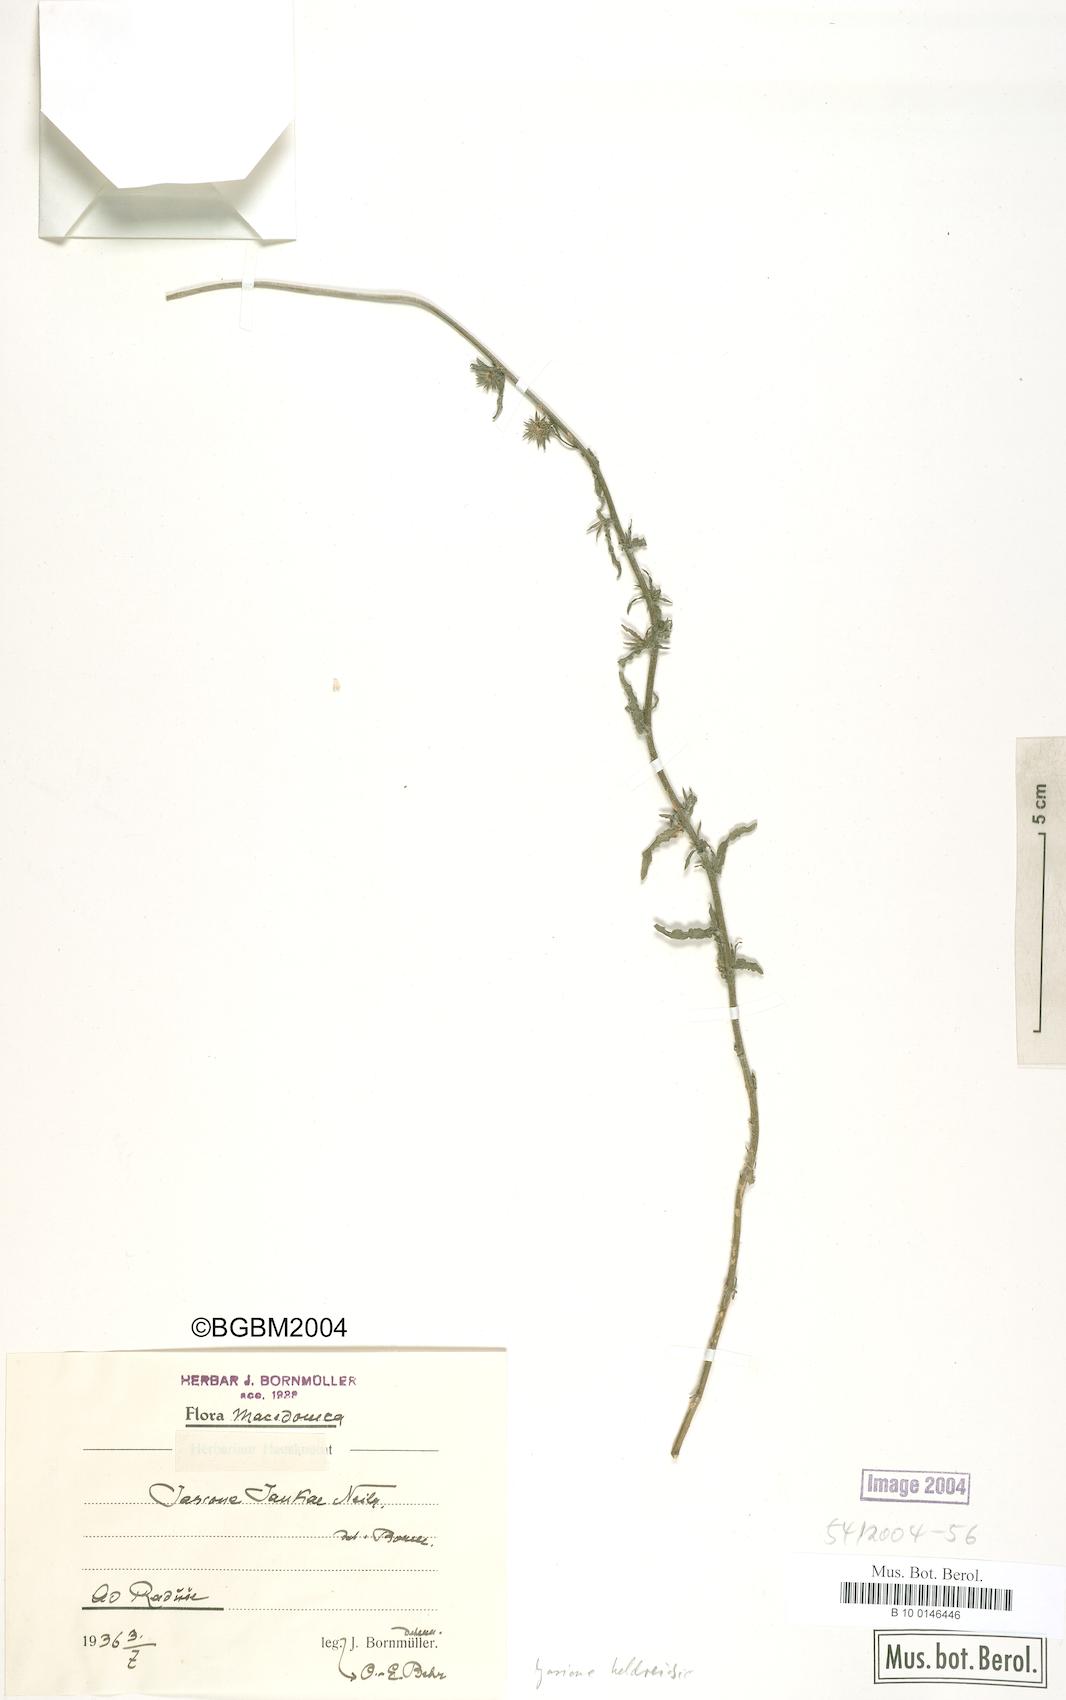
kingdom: Plantae
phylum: Tracheophyta
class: Magnoliopsida
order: Asterales
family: Campanulaceae
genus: Jasione
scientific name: Jasione heldreichii
